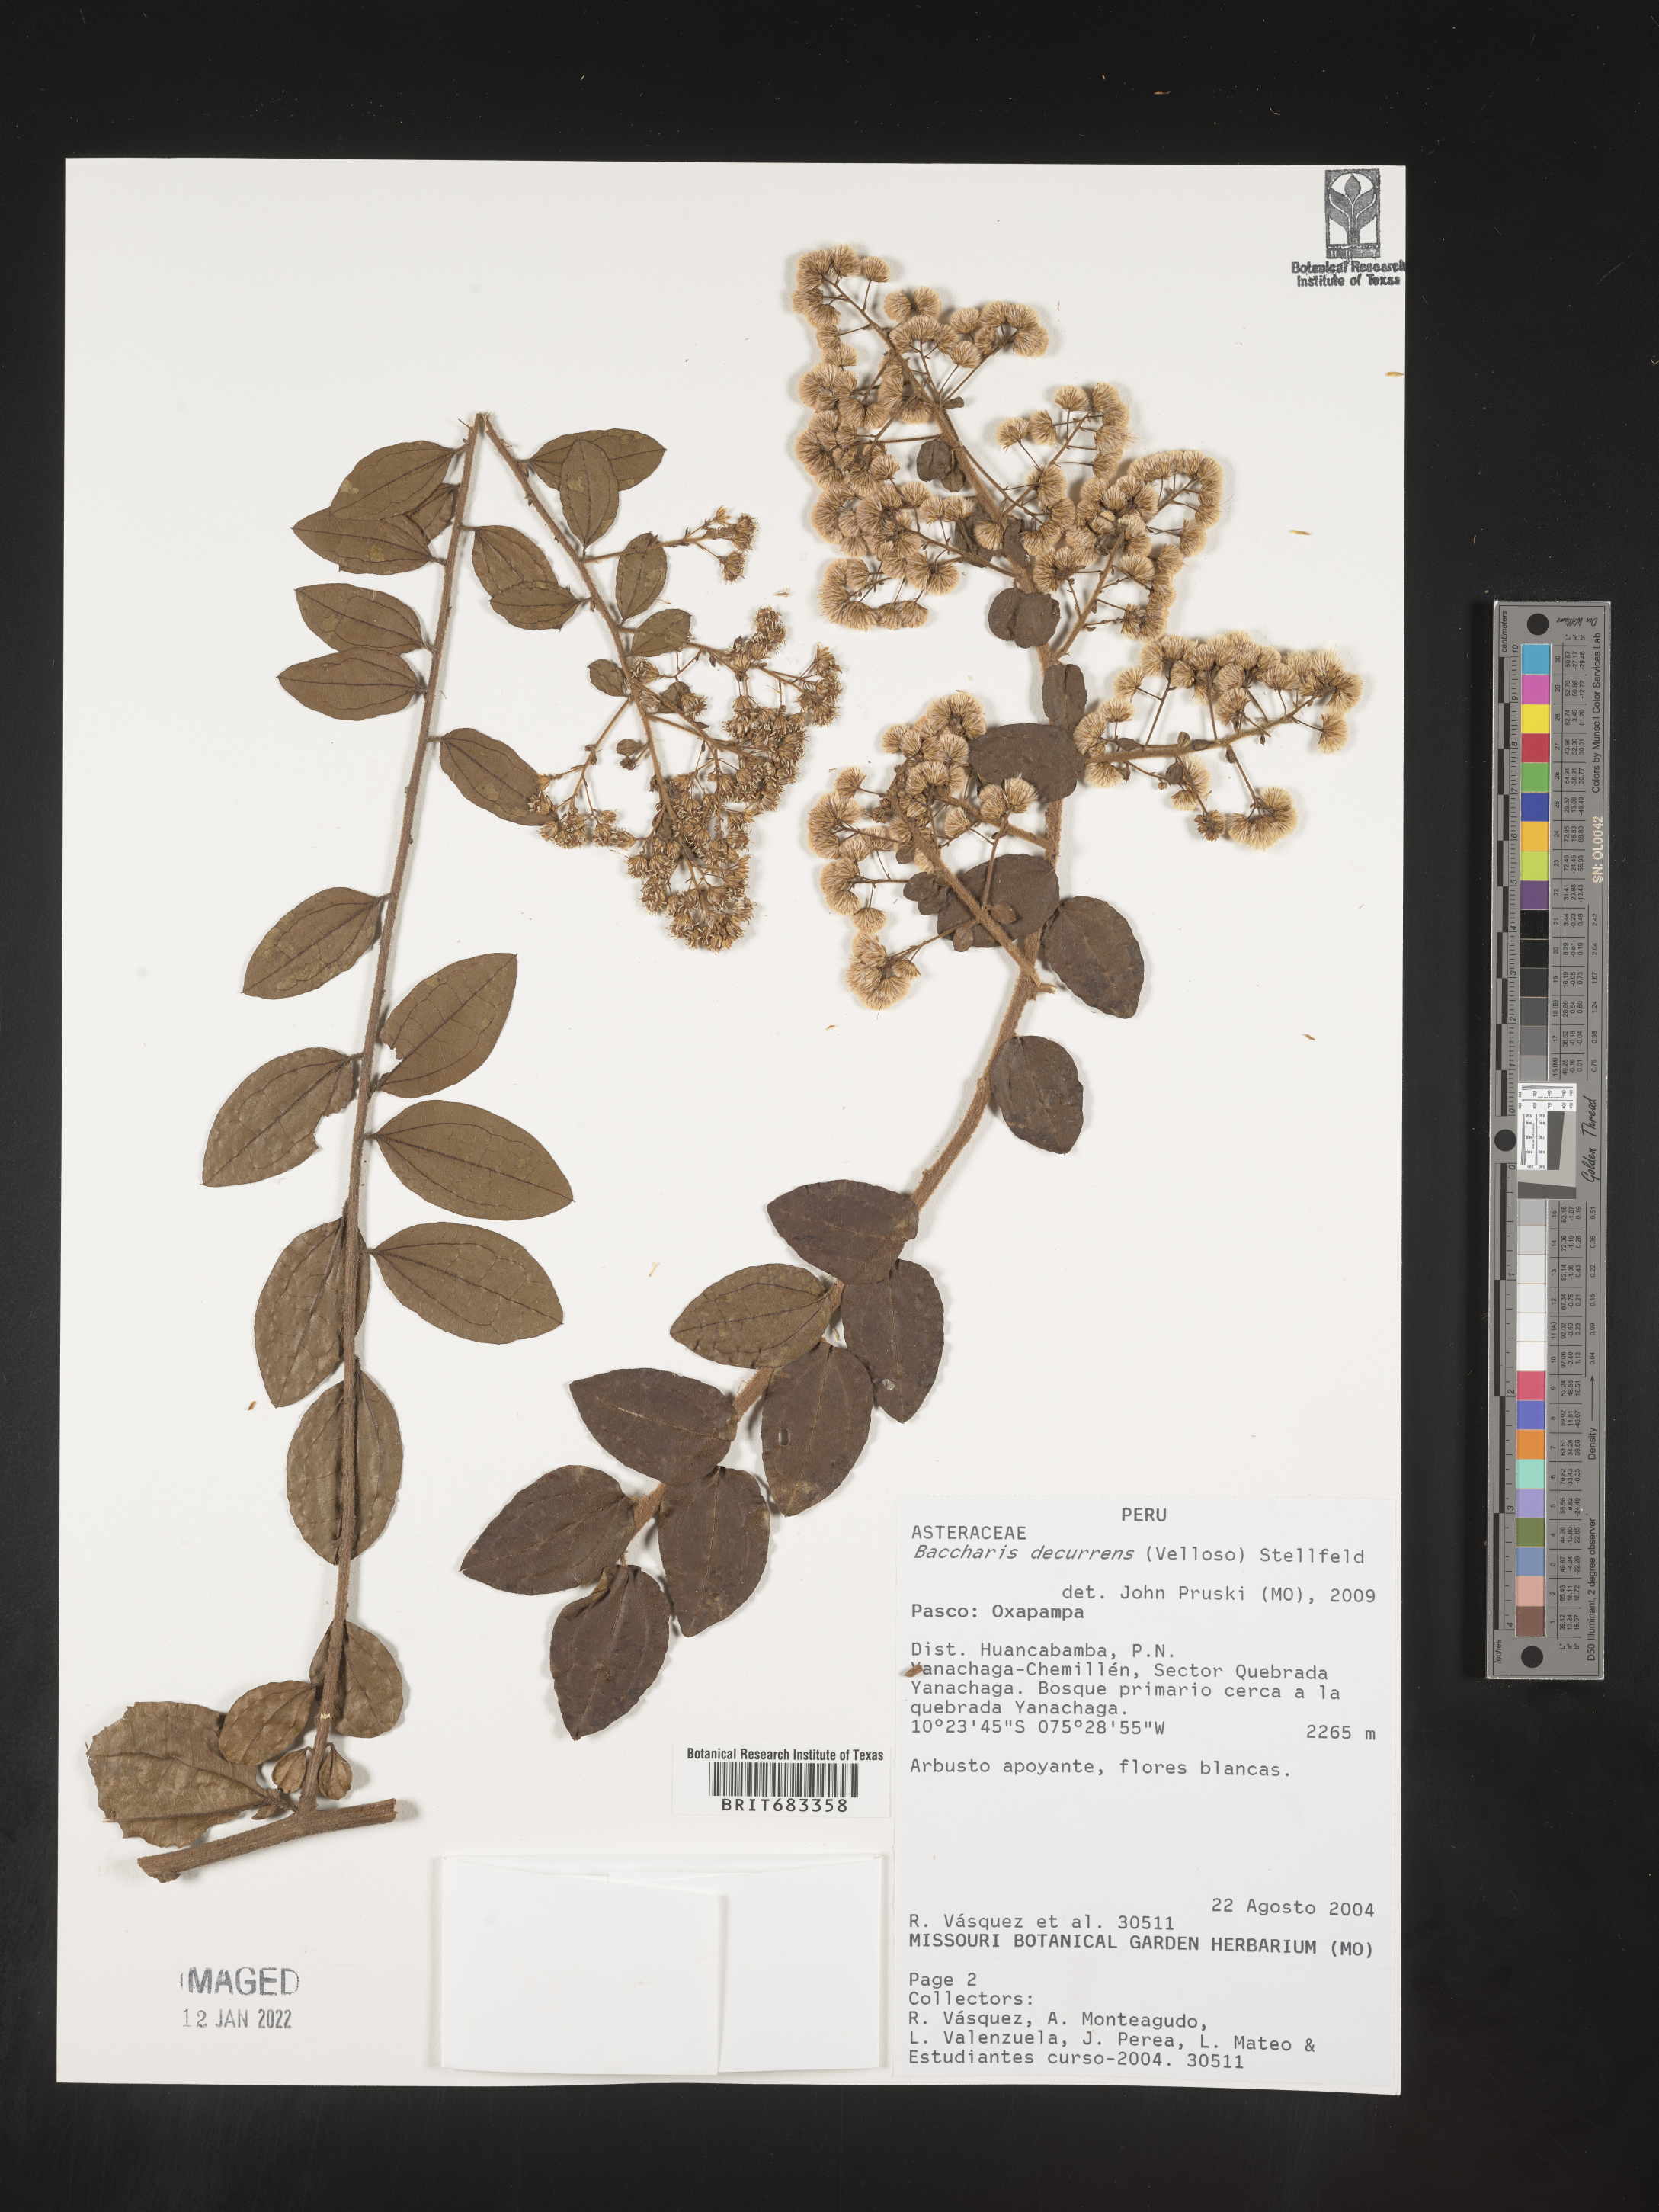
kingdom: Plantae
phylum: Tracheophyta
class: Magnoliopsida
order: Asterales
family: Asteraceae
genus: Baccharis
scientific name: Baccharis
